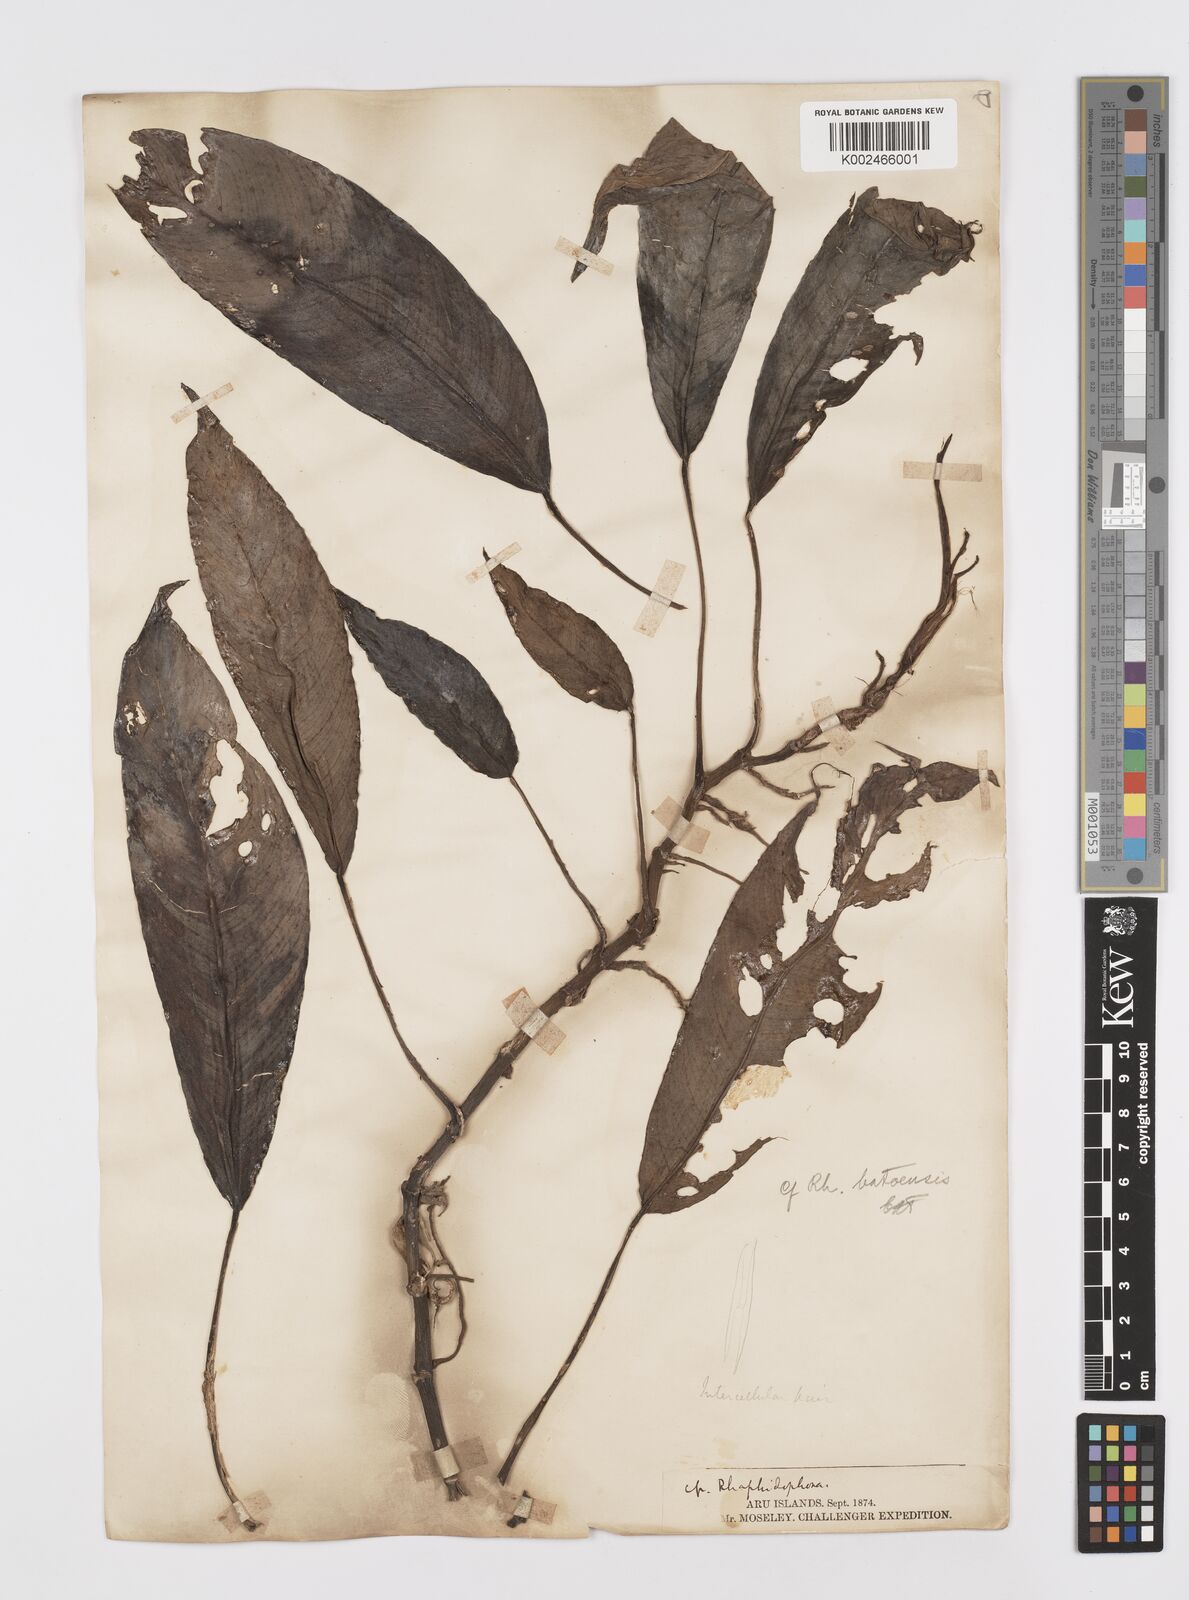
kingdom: Plantae
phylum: Tracheophyta
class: Liliopsida
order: Alismatales
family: Araceae
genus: Rhaphidophora
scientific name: Rhaphidophora
